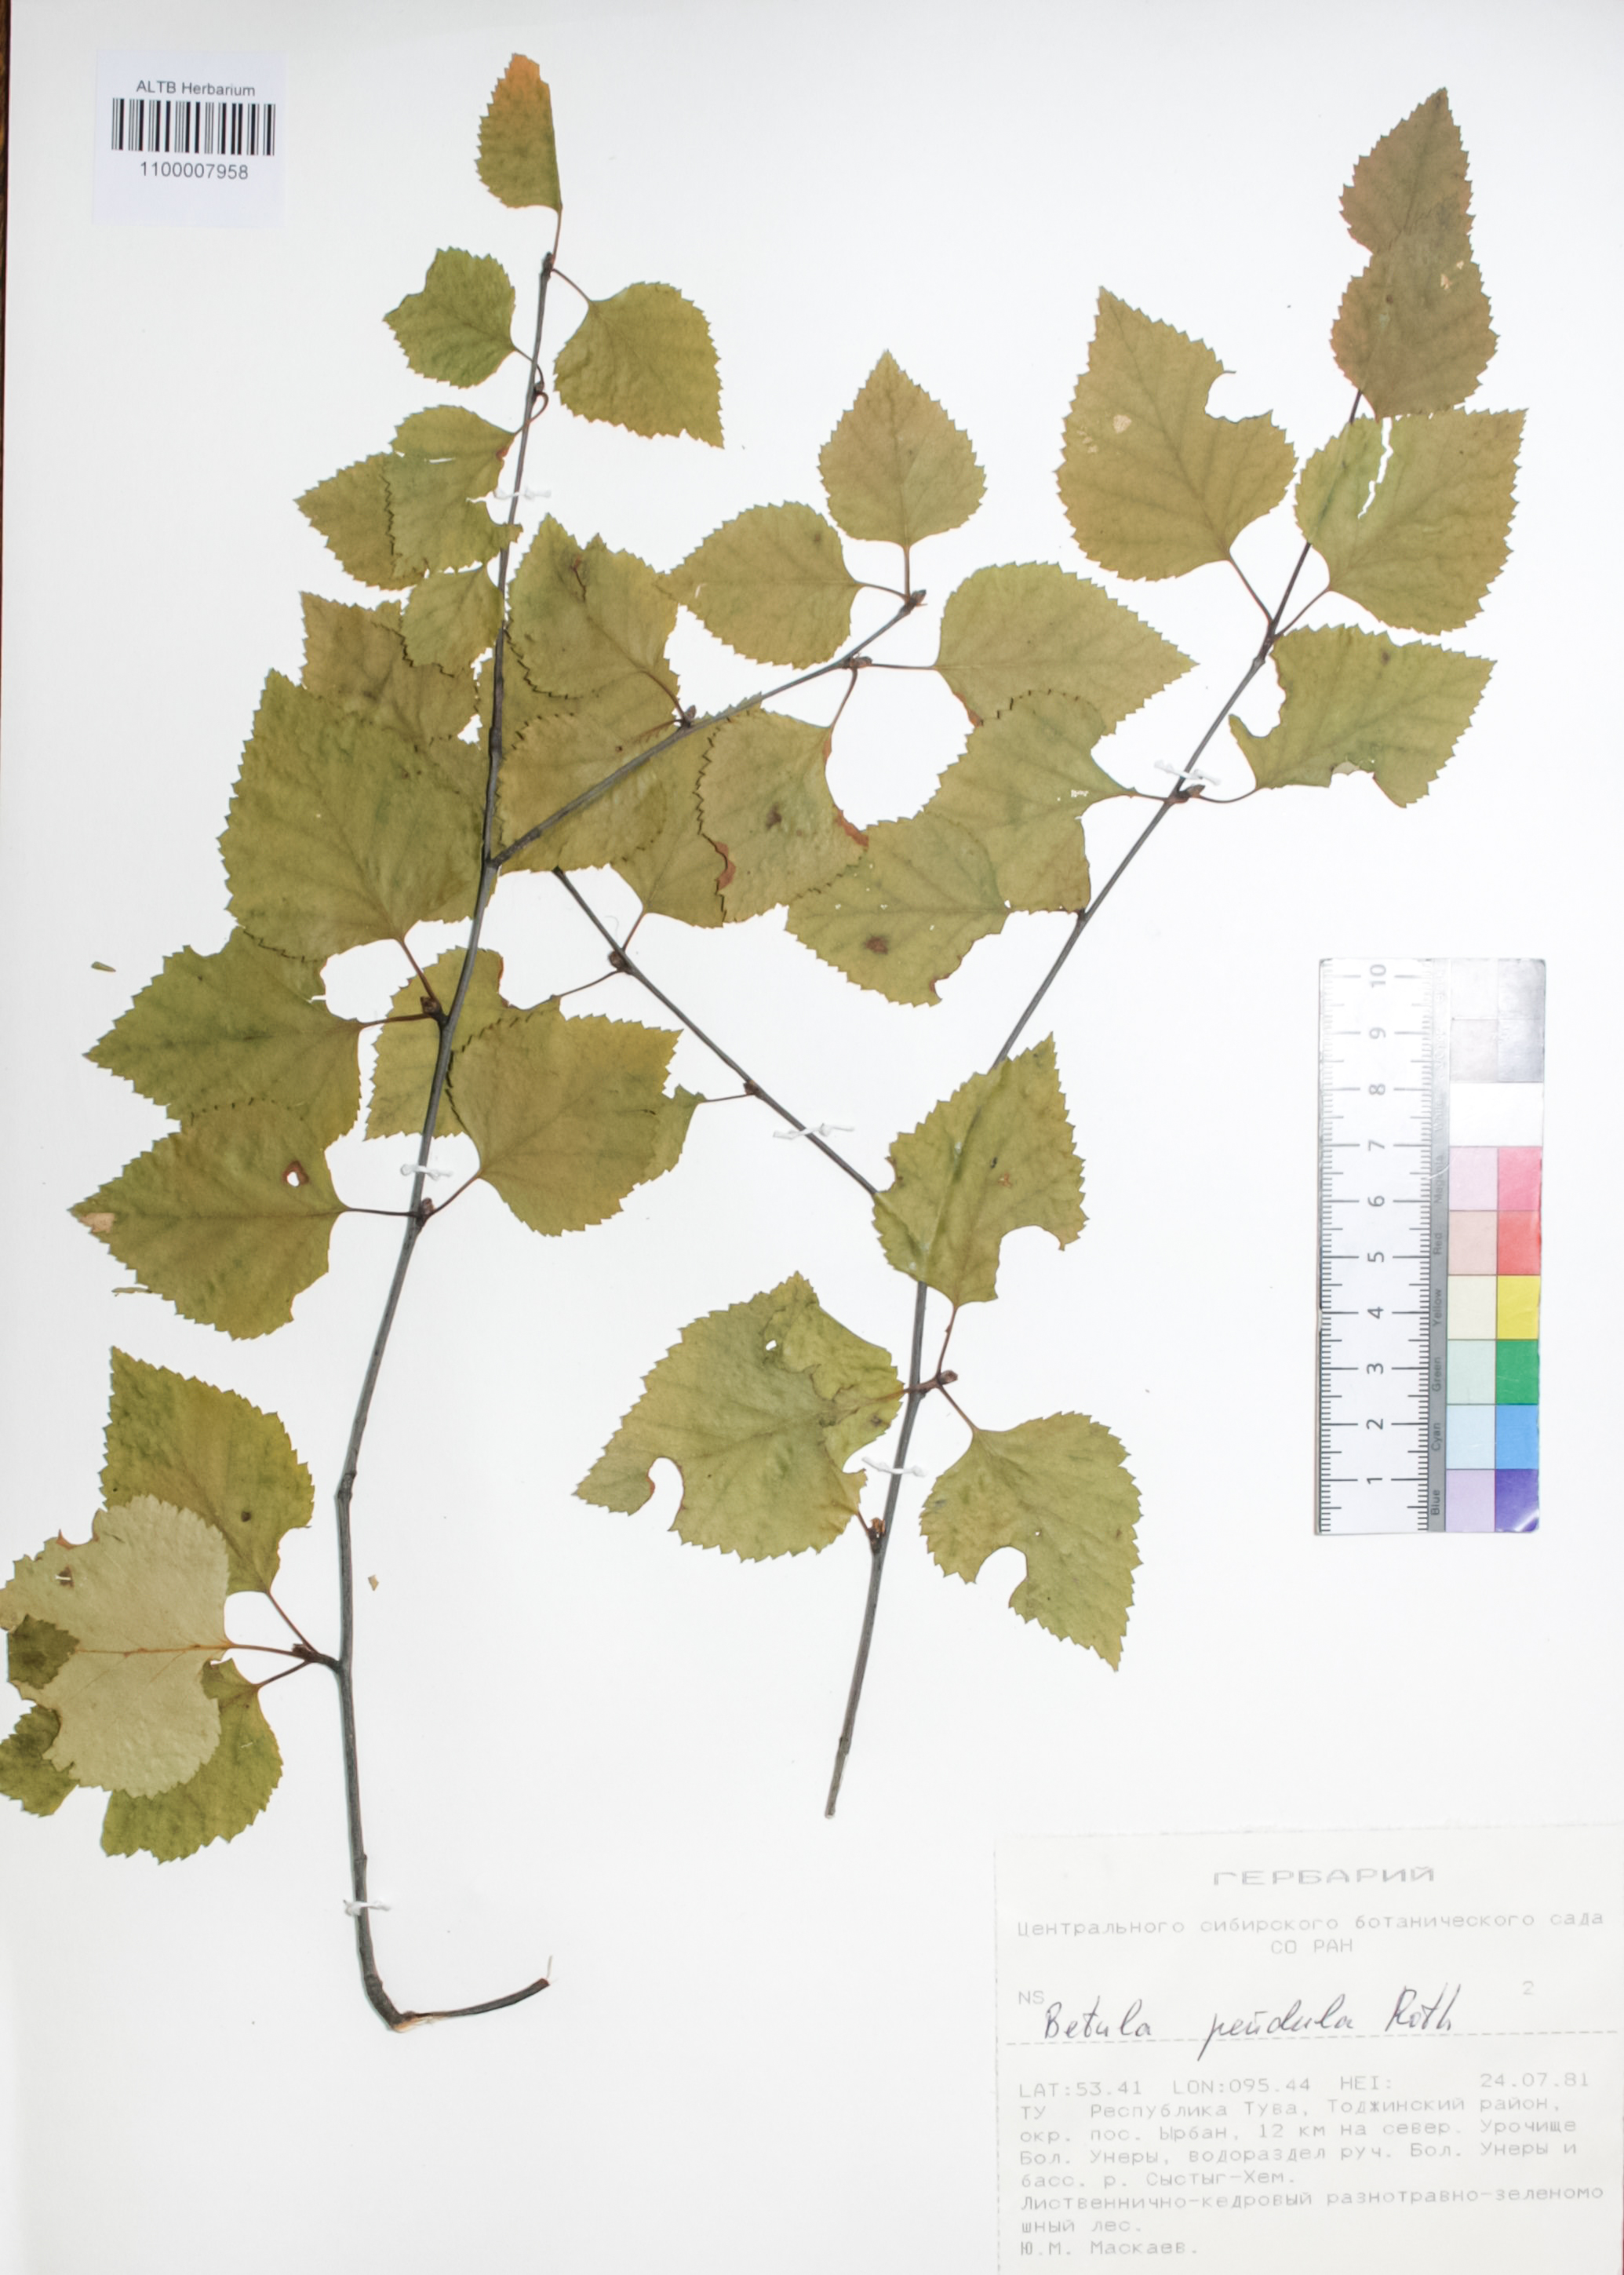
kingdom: Plantae
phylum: Tracheophyta
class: Magnoliopsida
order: Fagales
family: Betulaceae
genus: Betula
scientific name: Betula pendula
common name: Silver birch
